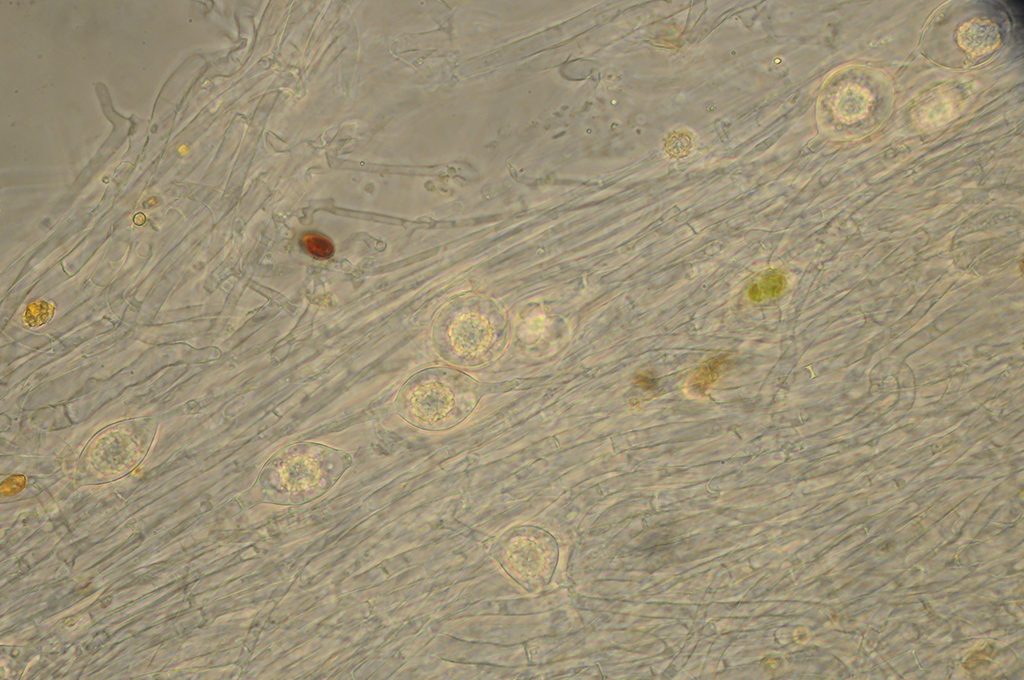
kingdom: Fungi
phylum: Basidiomycota
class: Agaricomycetes
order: Agaricales
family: Tricholomataceae
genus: Clitocybe
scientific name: Clitocybe phaeophthalma
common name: stinkende tragthat
